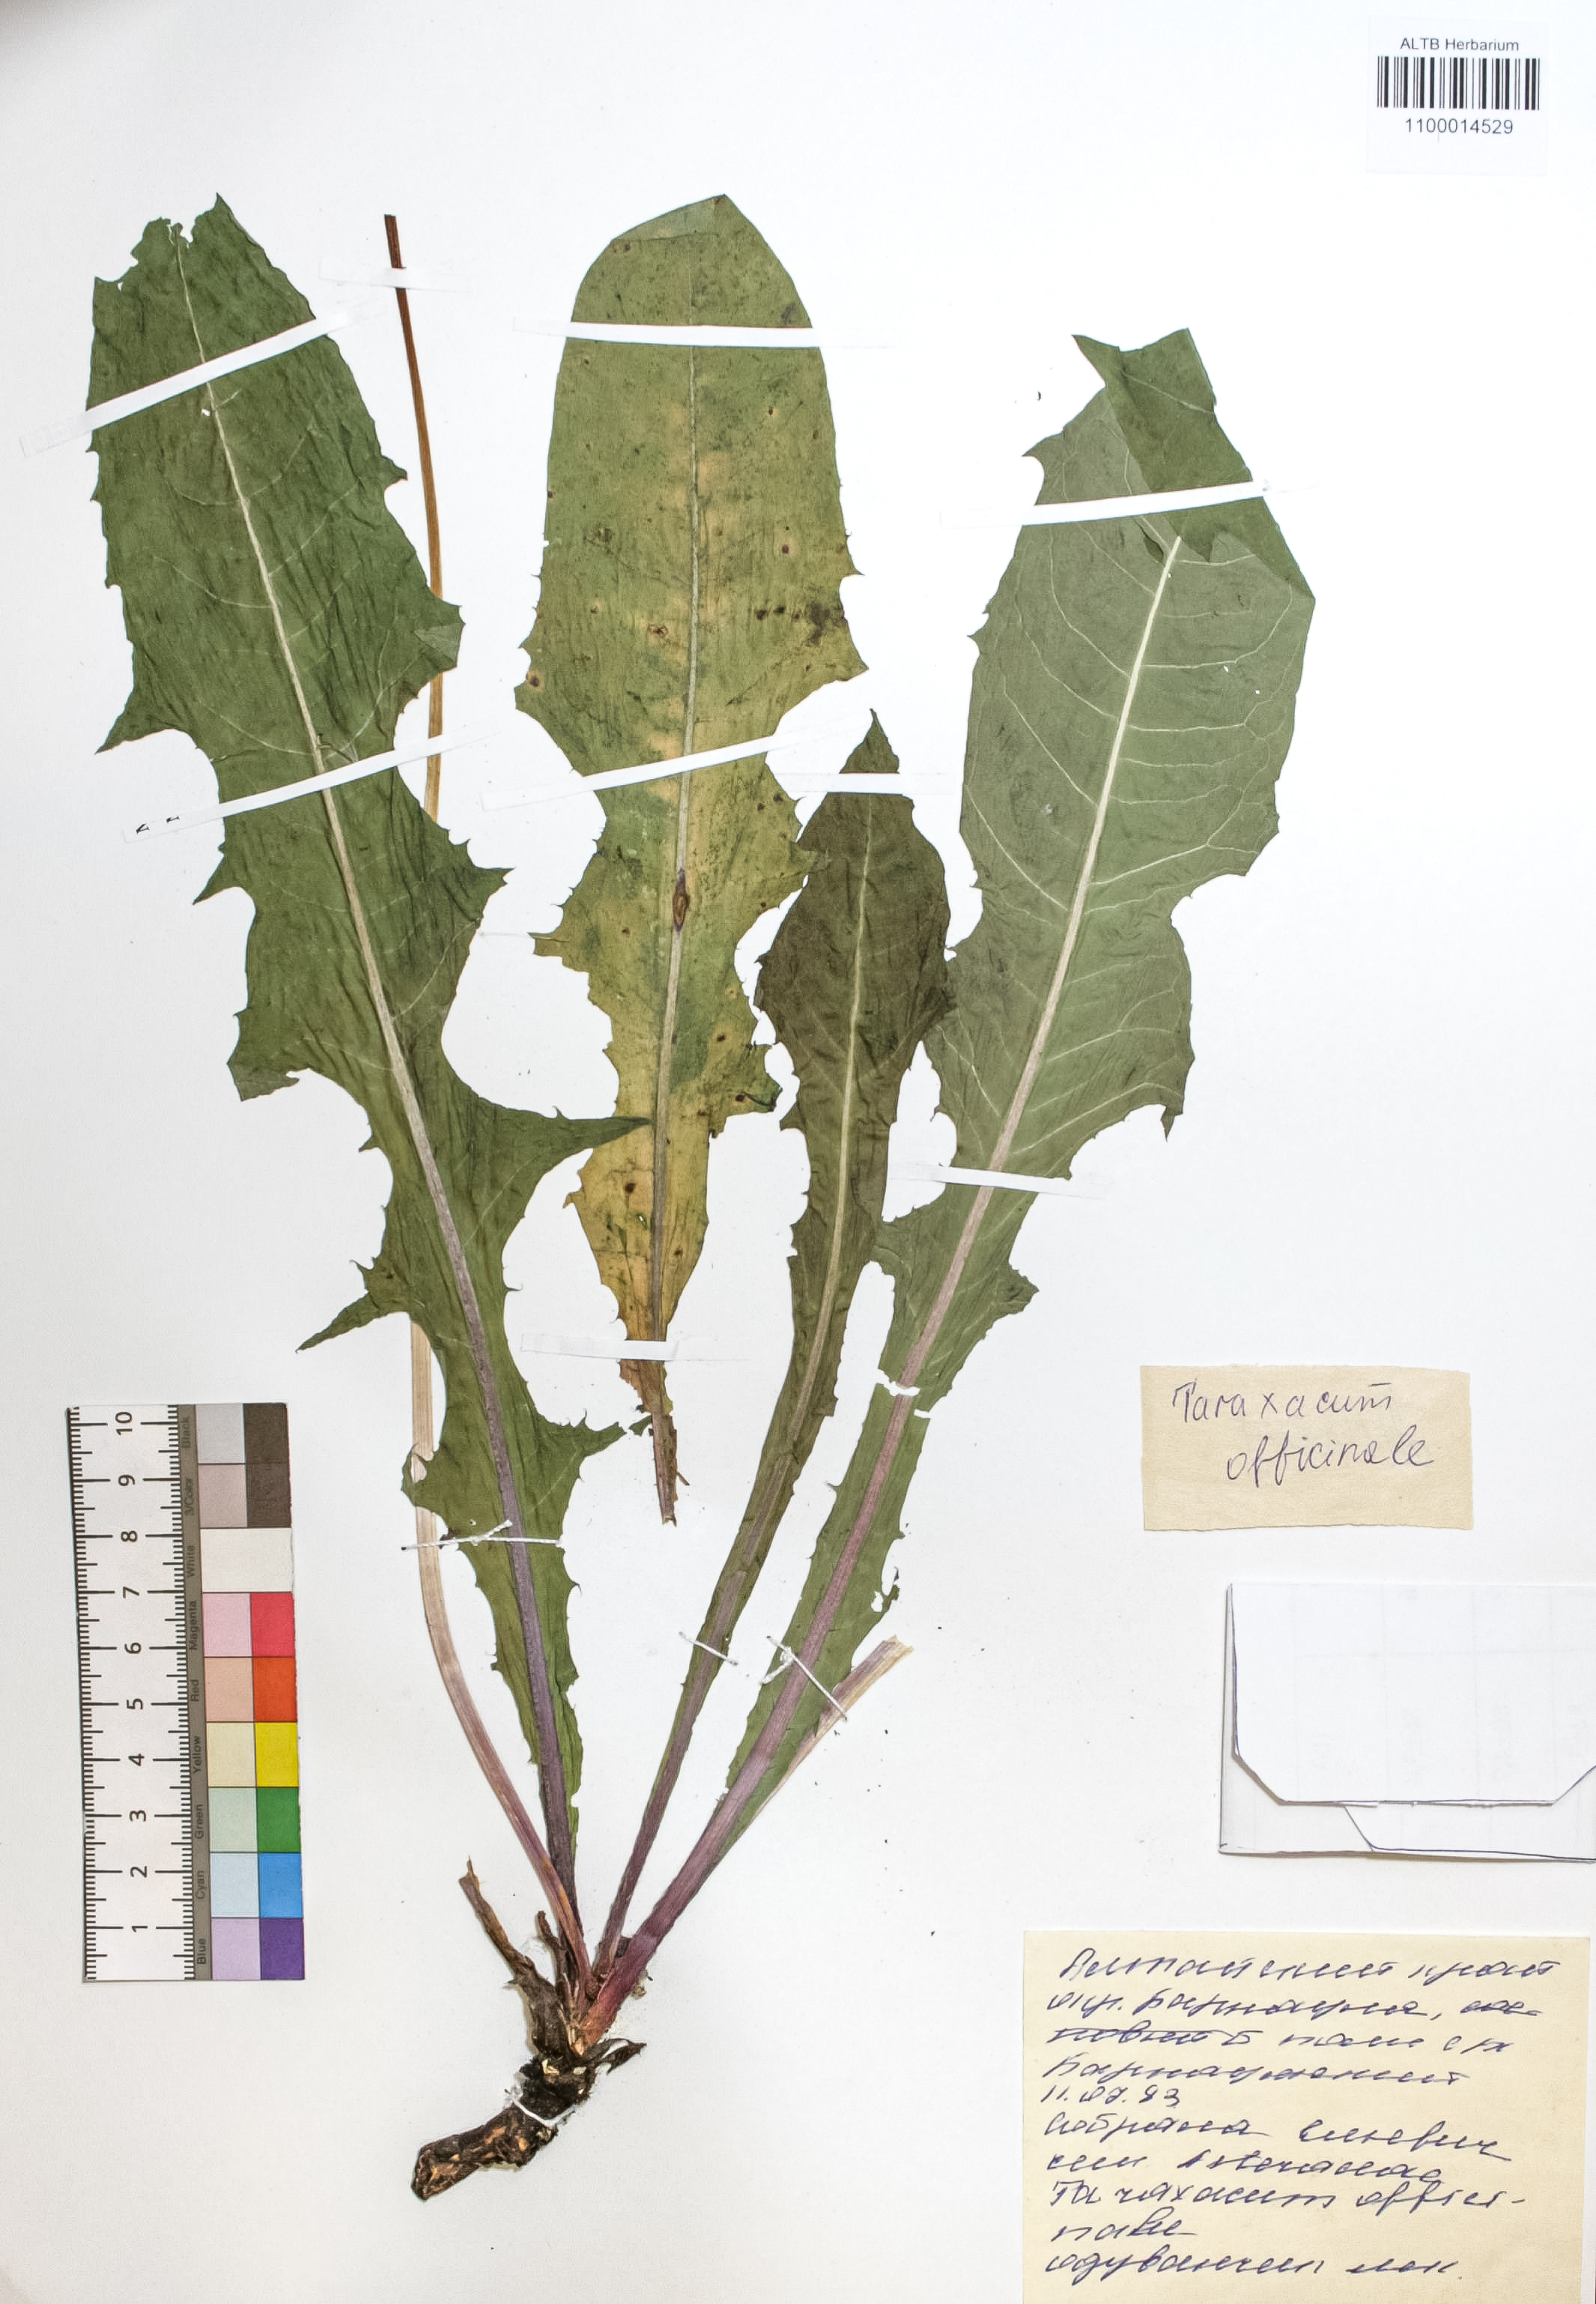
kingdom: Plantae
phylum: Tracheophyta
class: Magnoliopsida
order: Asterales
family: Asteraceae
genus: Taraxacum
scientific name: Taraxacum officinale
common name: Common dandelion
